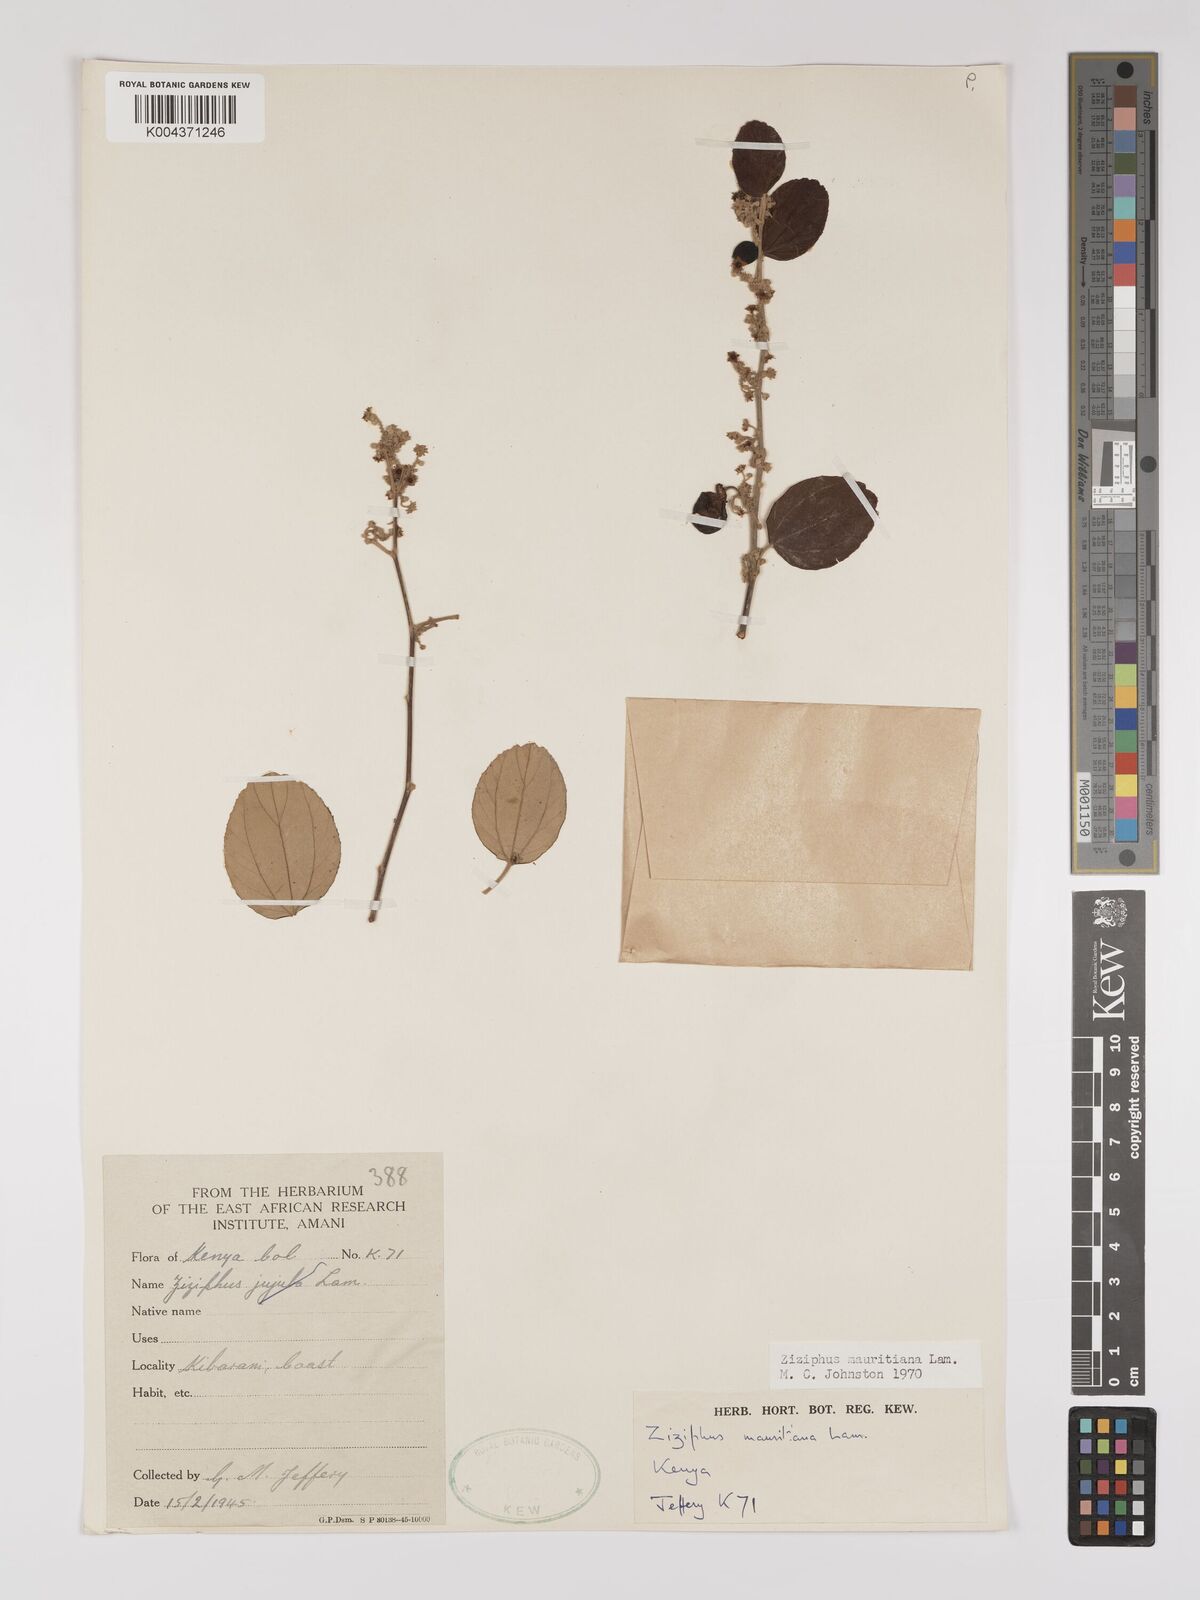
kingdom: Plantae
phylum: Tracheophyta
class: Magnoliopsida
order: Rosales
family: Rhamnaceae
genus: Ziziphus
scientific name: Ziziphus mauritiana
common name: Indian jujube
